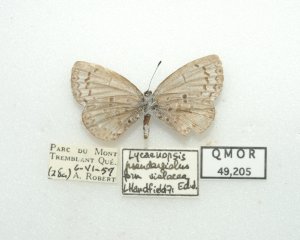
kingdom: Animalia
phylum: Arthropoda
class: Insecta
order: Lepidoptera
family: Lycaenidae
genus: Celastrina
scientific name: Celastrina lucia
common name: Northern Spring Azure
